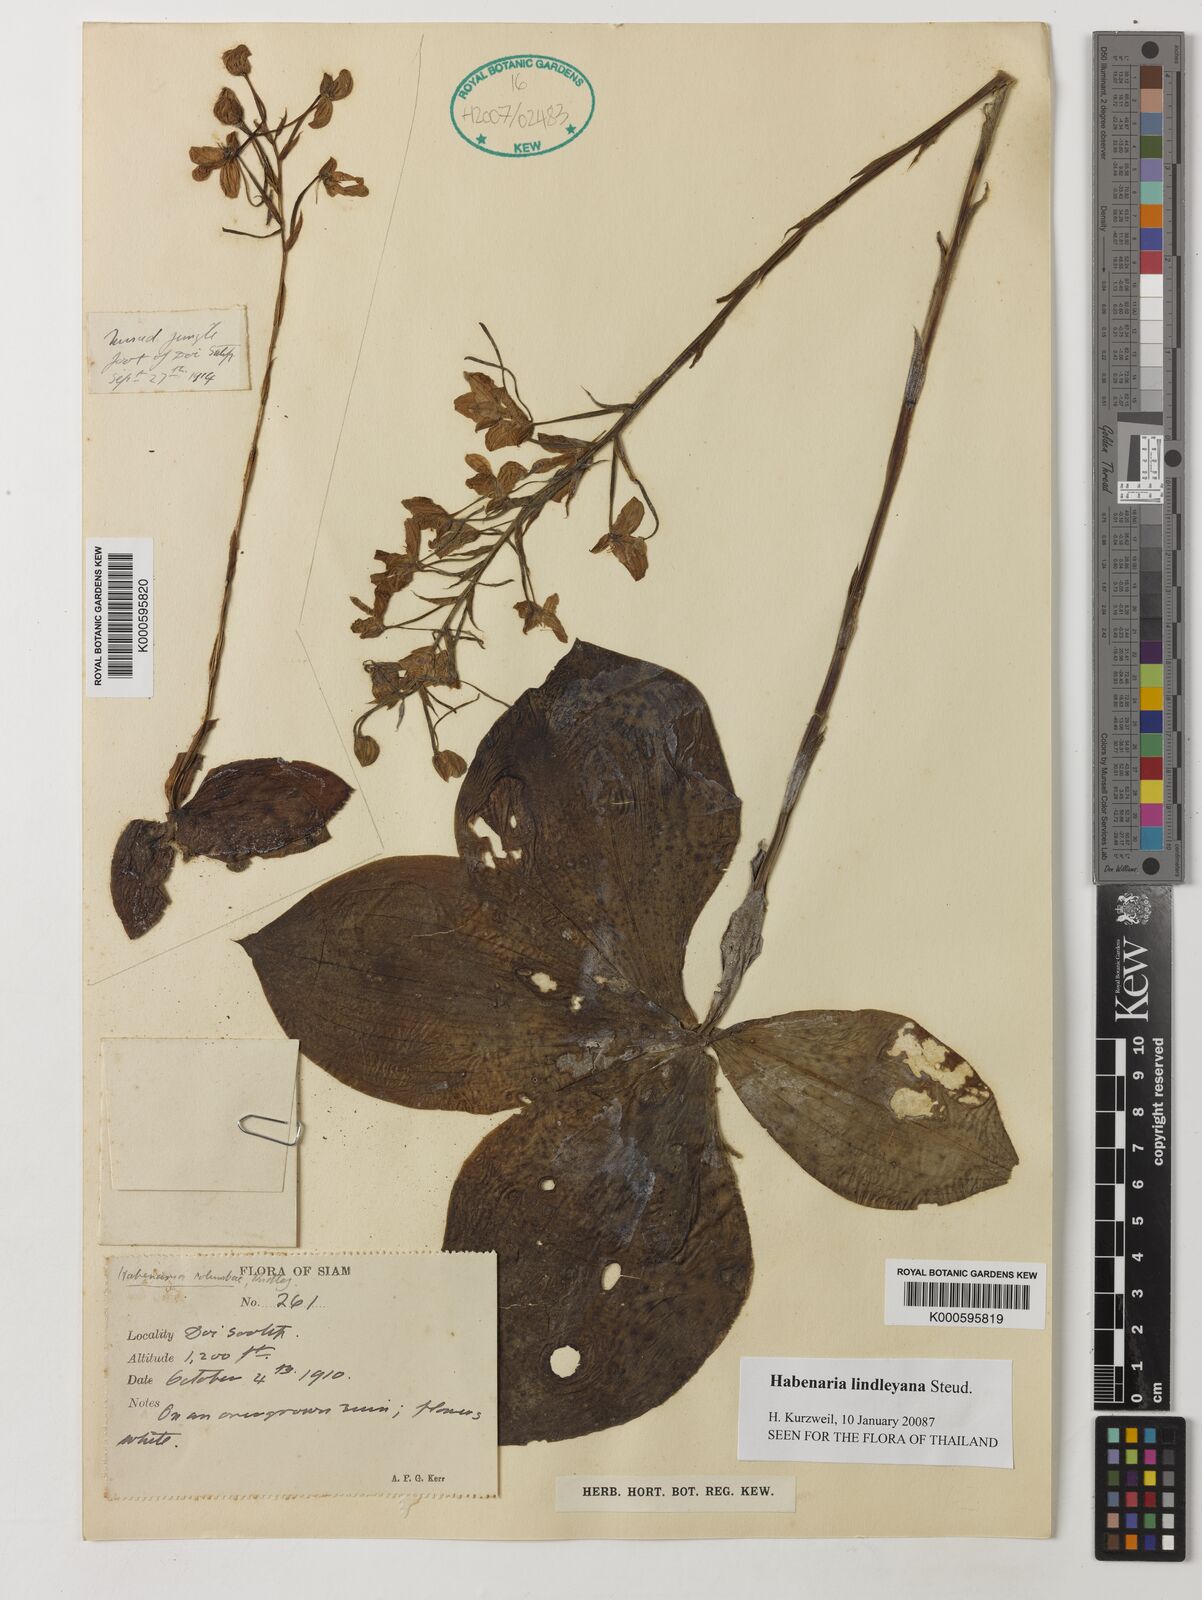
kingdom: Plantae
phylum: Tracheophyta
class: Liliopsida
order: Asparagales
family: Orchidaceae
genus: Habenaria
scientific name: Habenaria lindleyana
